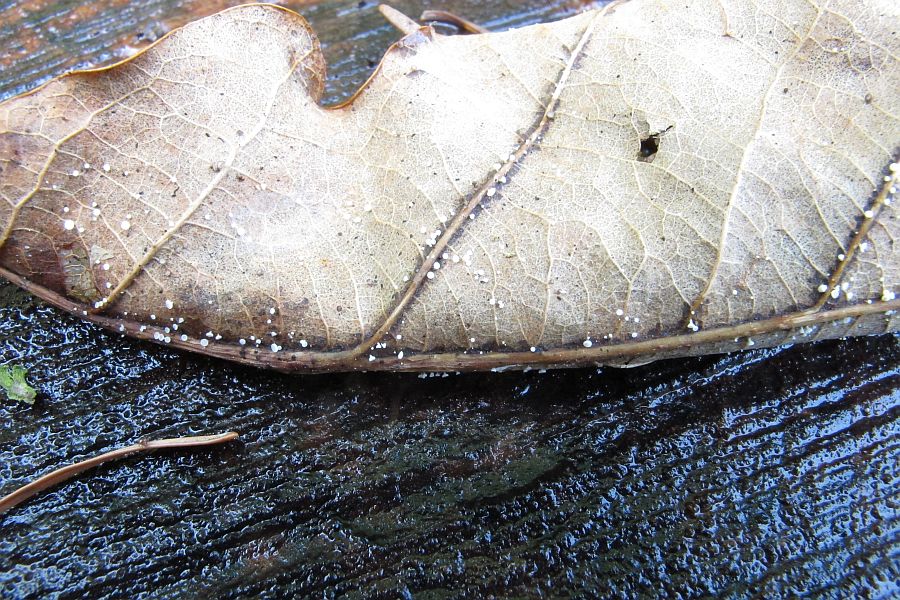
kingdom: Fungi
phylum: Ascomycota
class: Leotiomycetes
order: Helotiales
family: Lachnaceae
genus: Lachnum
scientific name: Lachnum rhytismatis
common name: blad-frynseskive
